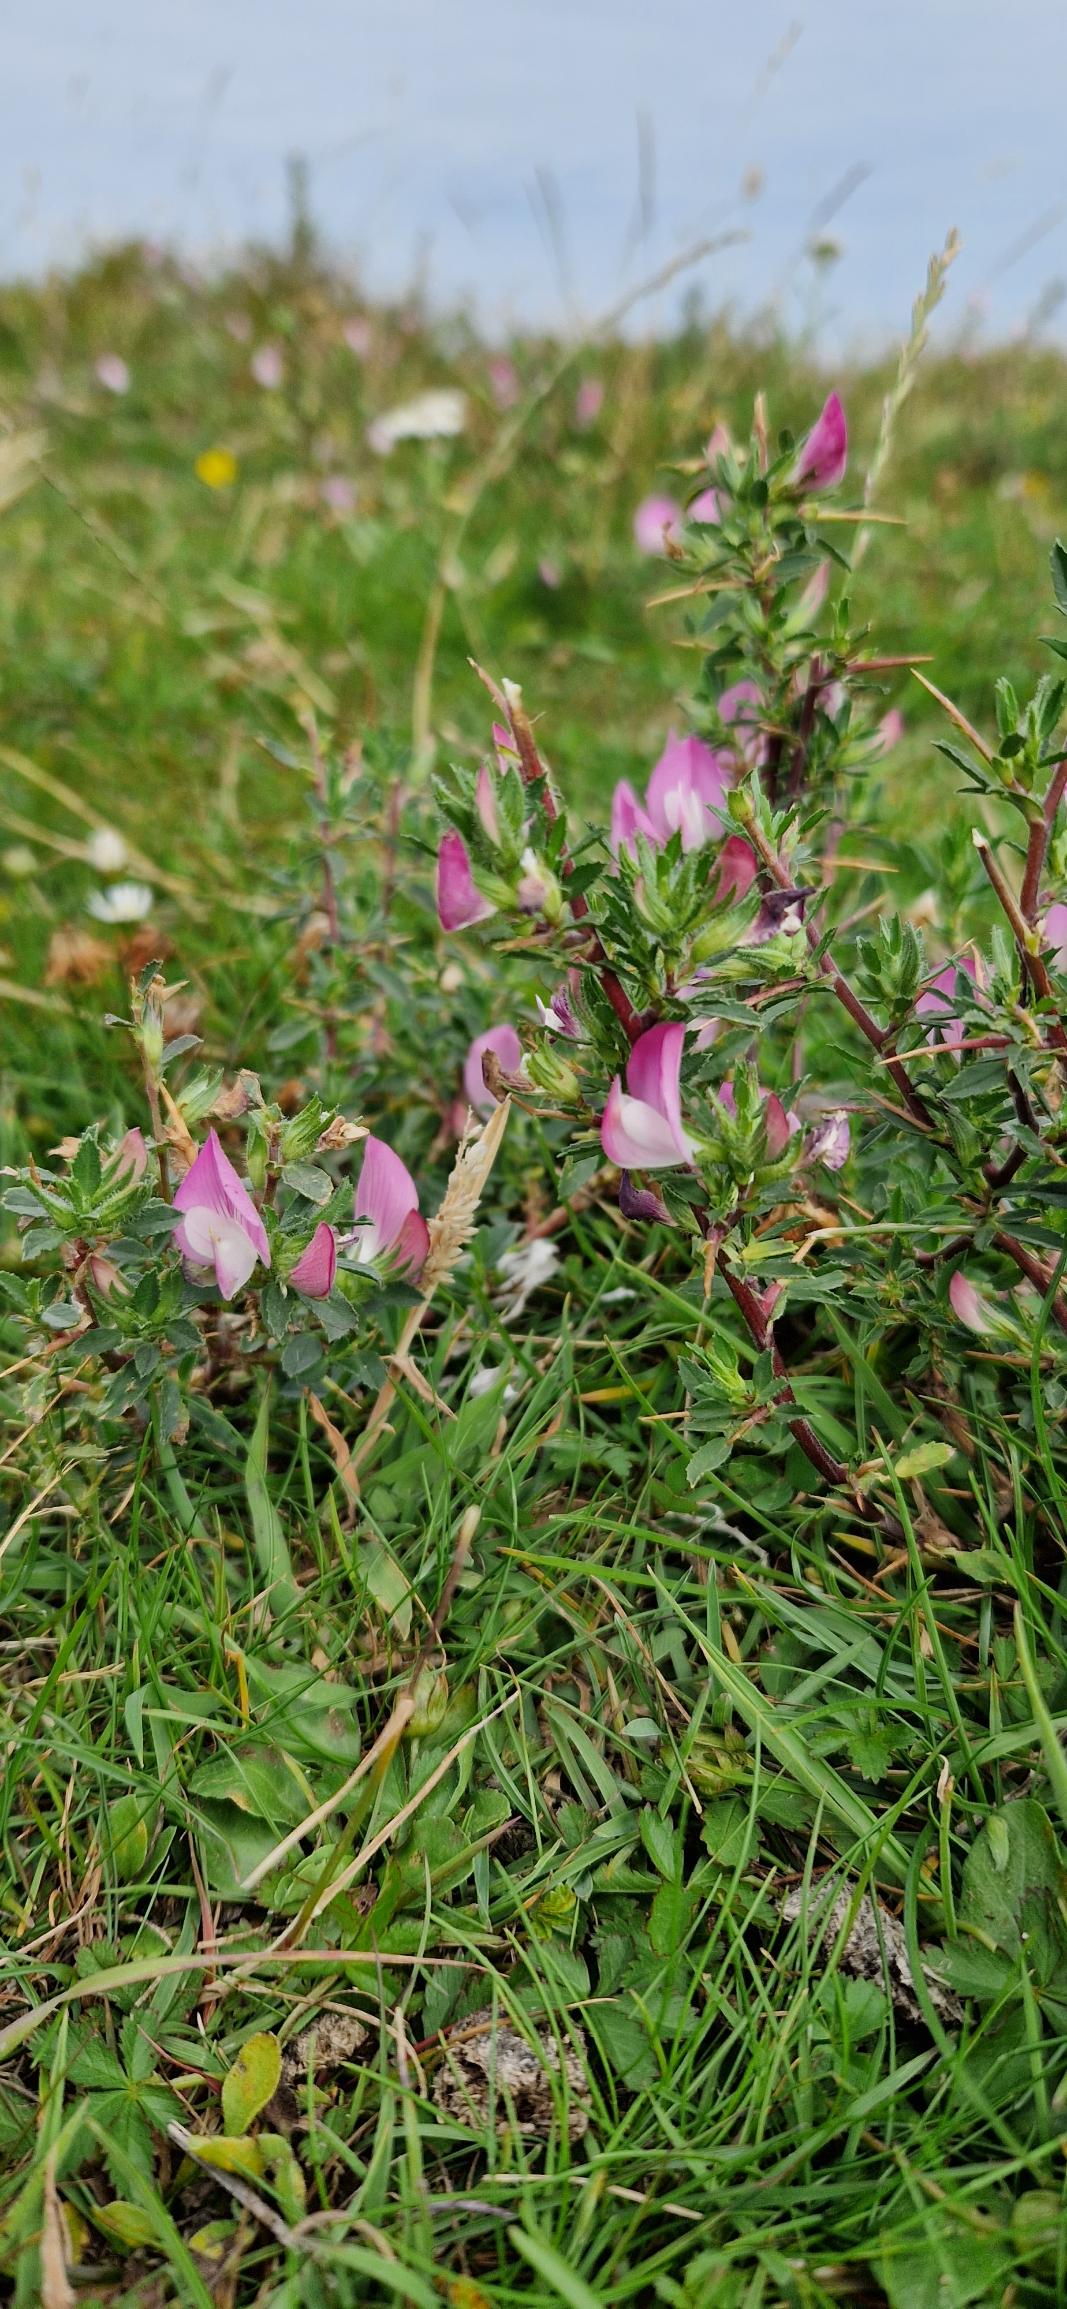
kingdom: Plantae
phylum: Tracheophyta
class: Magnoliopsida
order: Fabales
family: Fabaceae
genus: Ononis
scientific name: Ononis spinosa
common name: Strand-krageklo
